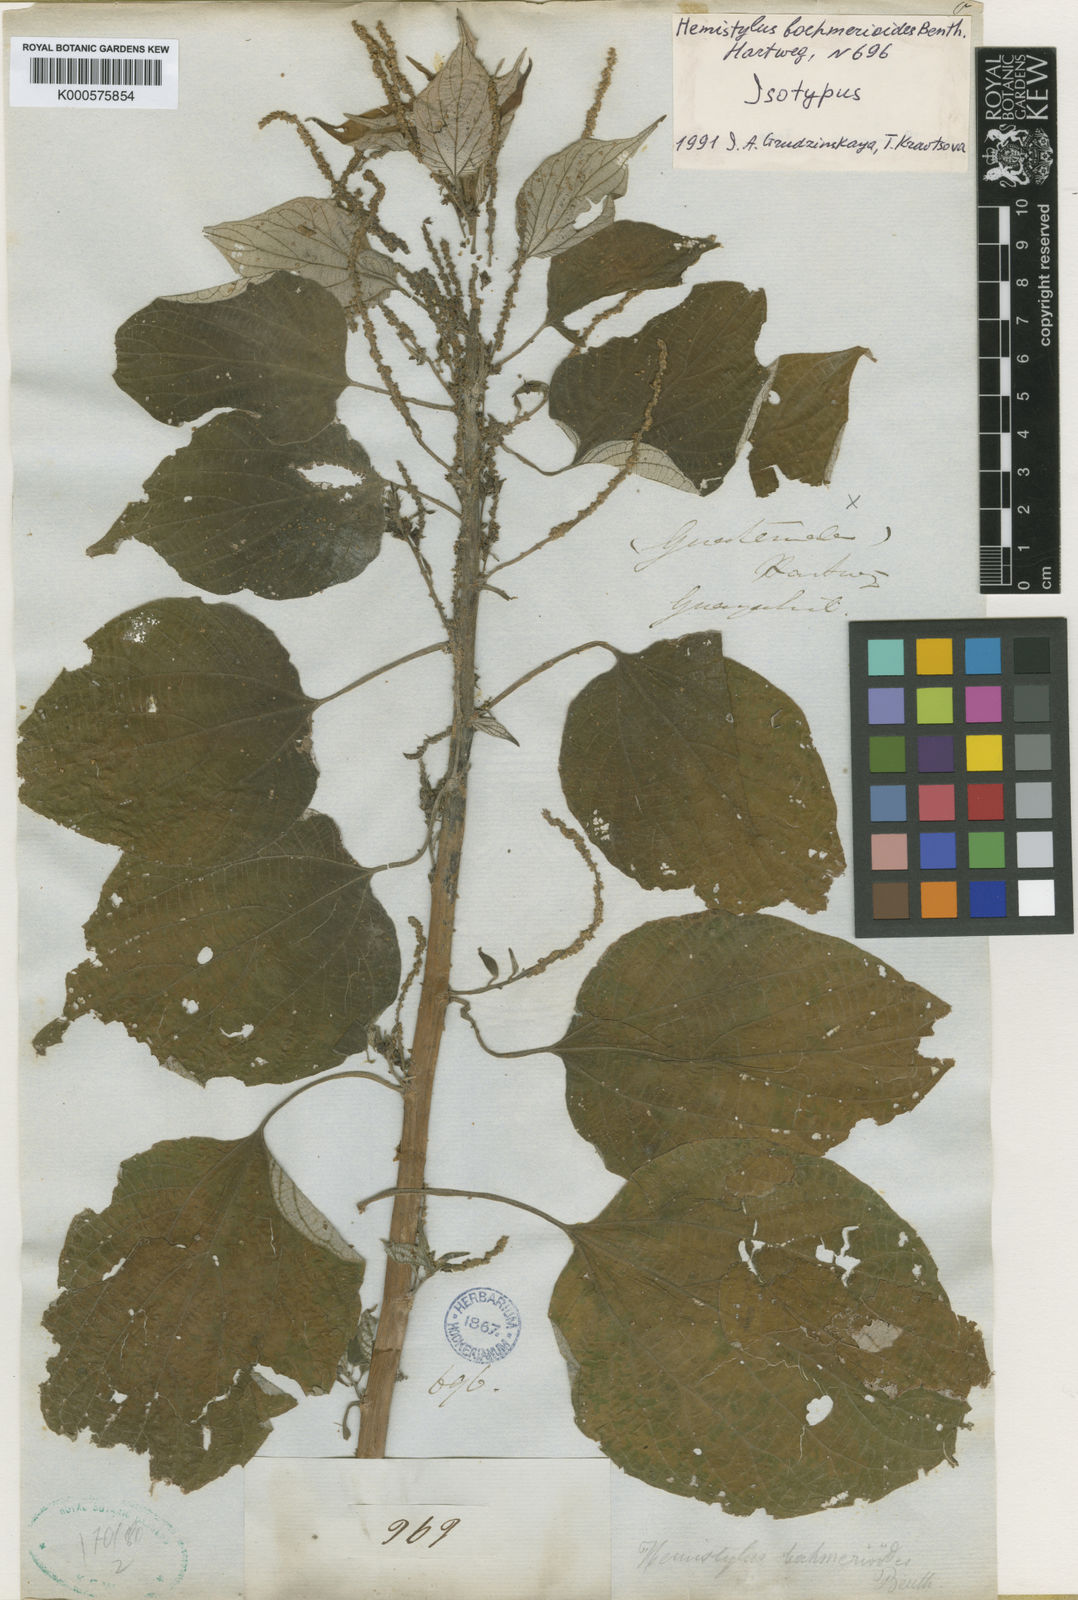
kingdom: Plantae
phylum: Tracheophyta
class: Magnoliopsida
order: Rosales
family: Urticaceae
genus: Hemistylus
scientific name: Hemistylus boehmerioides
